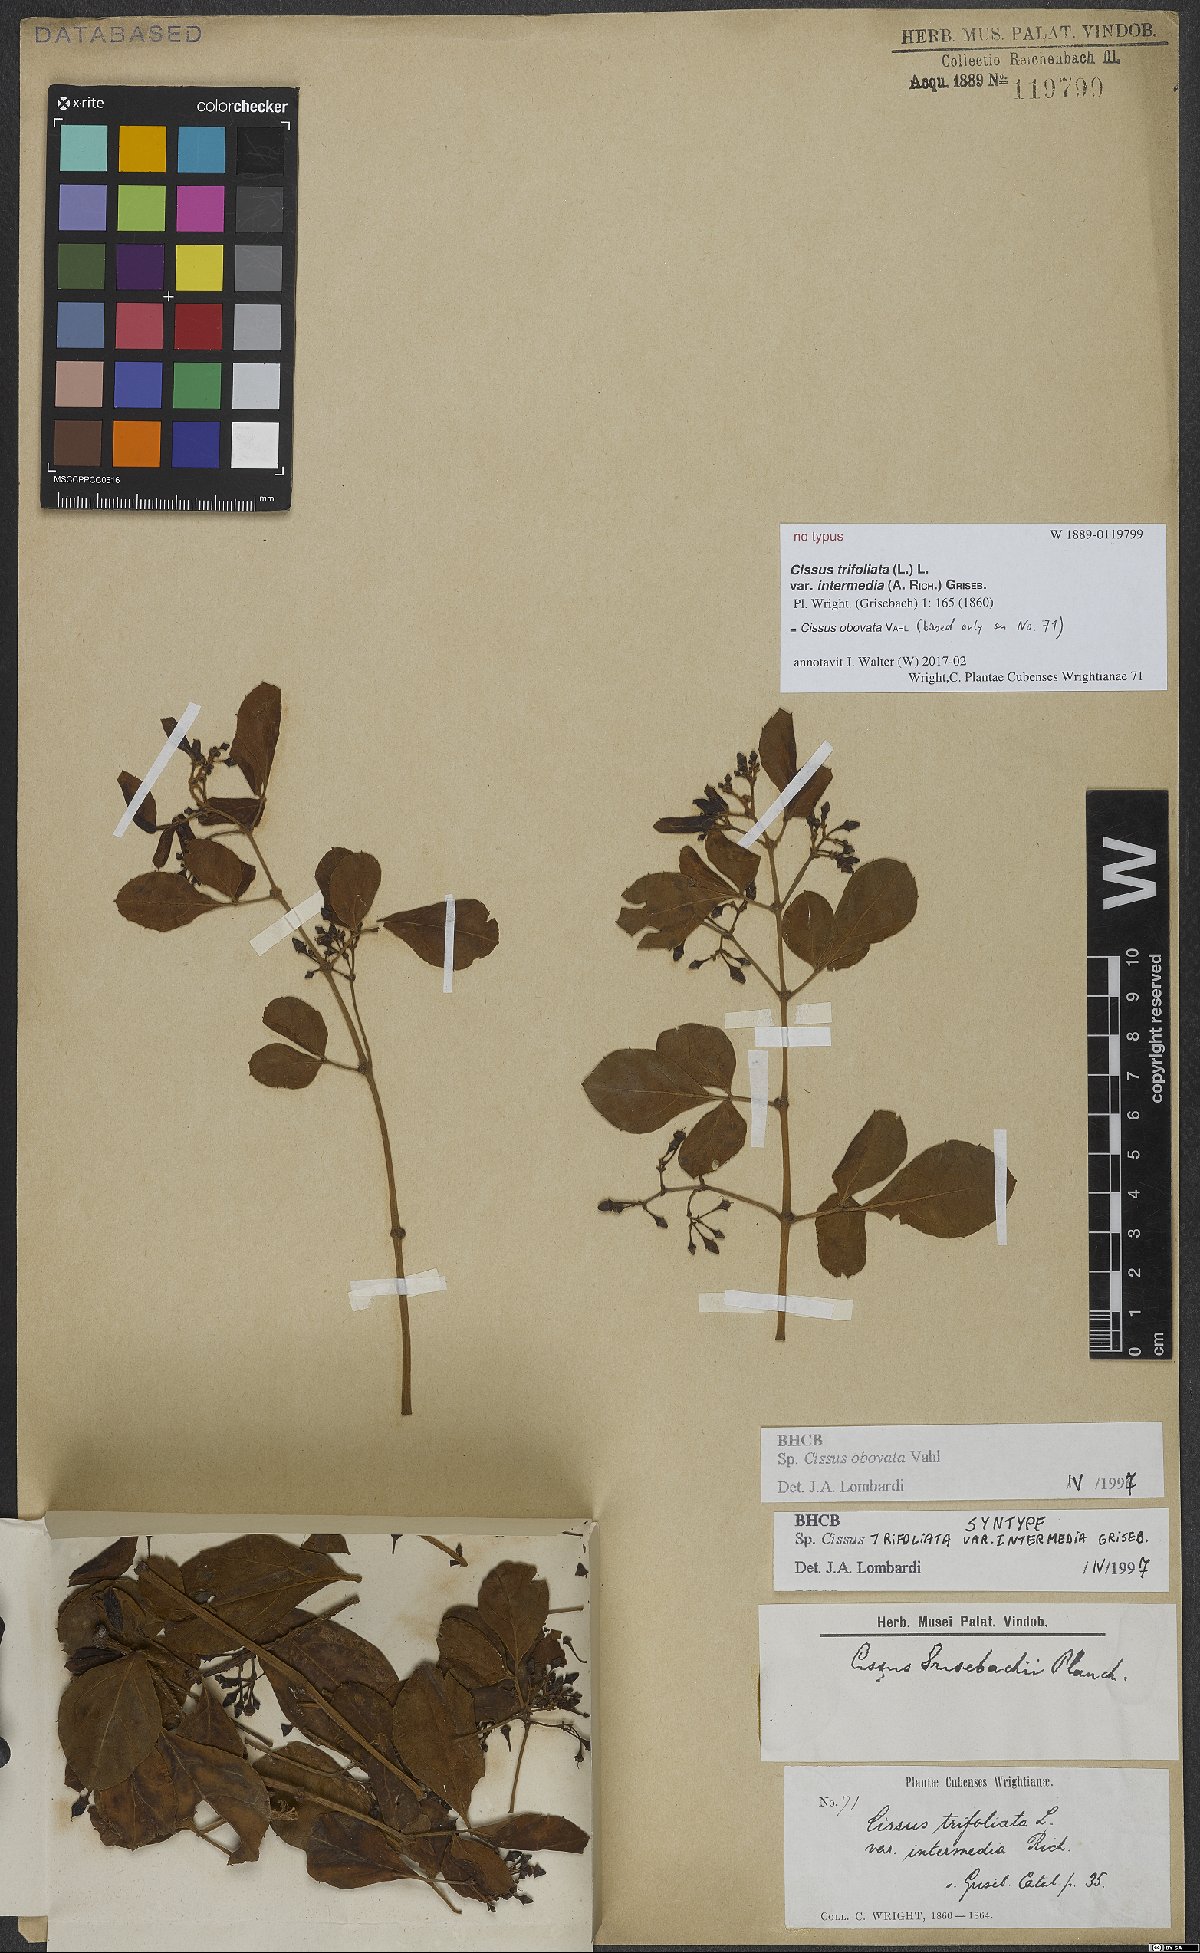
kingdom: Plantae
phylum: Tracheophyta
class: Magnoliopsida
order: Vitales
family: Vitaceae
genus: Cissus
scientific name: Cissus obovata
